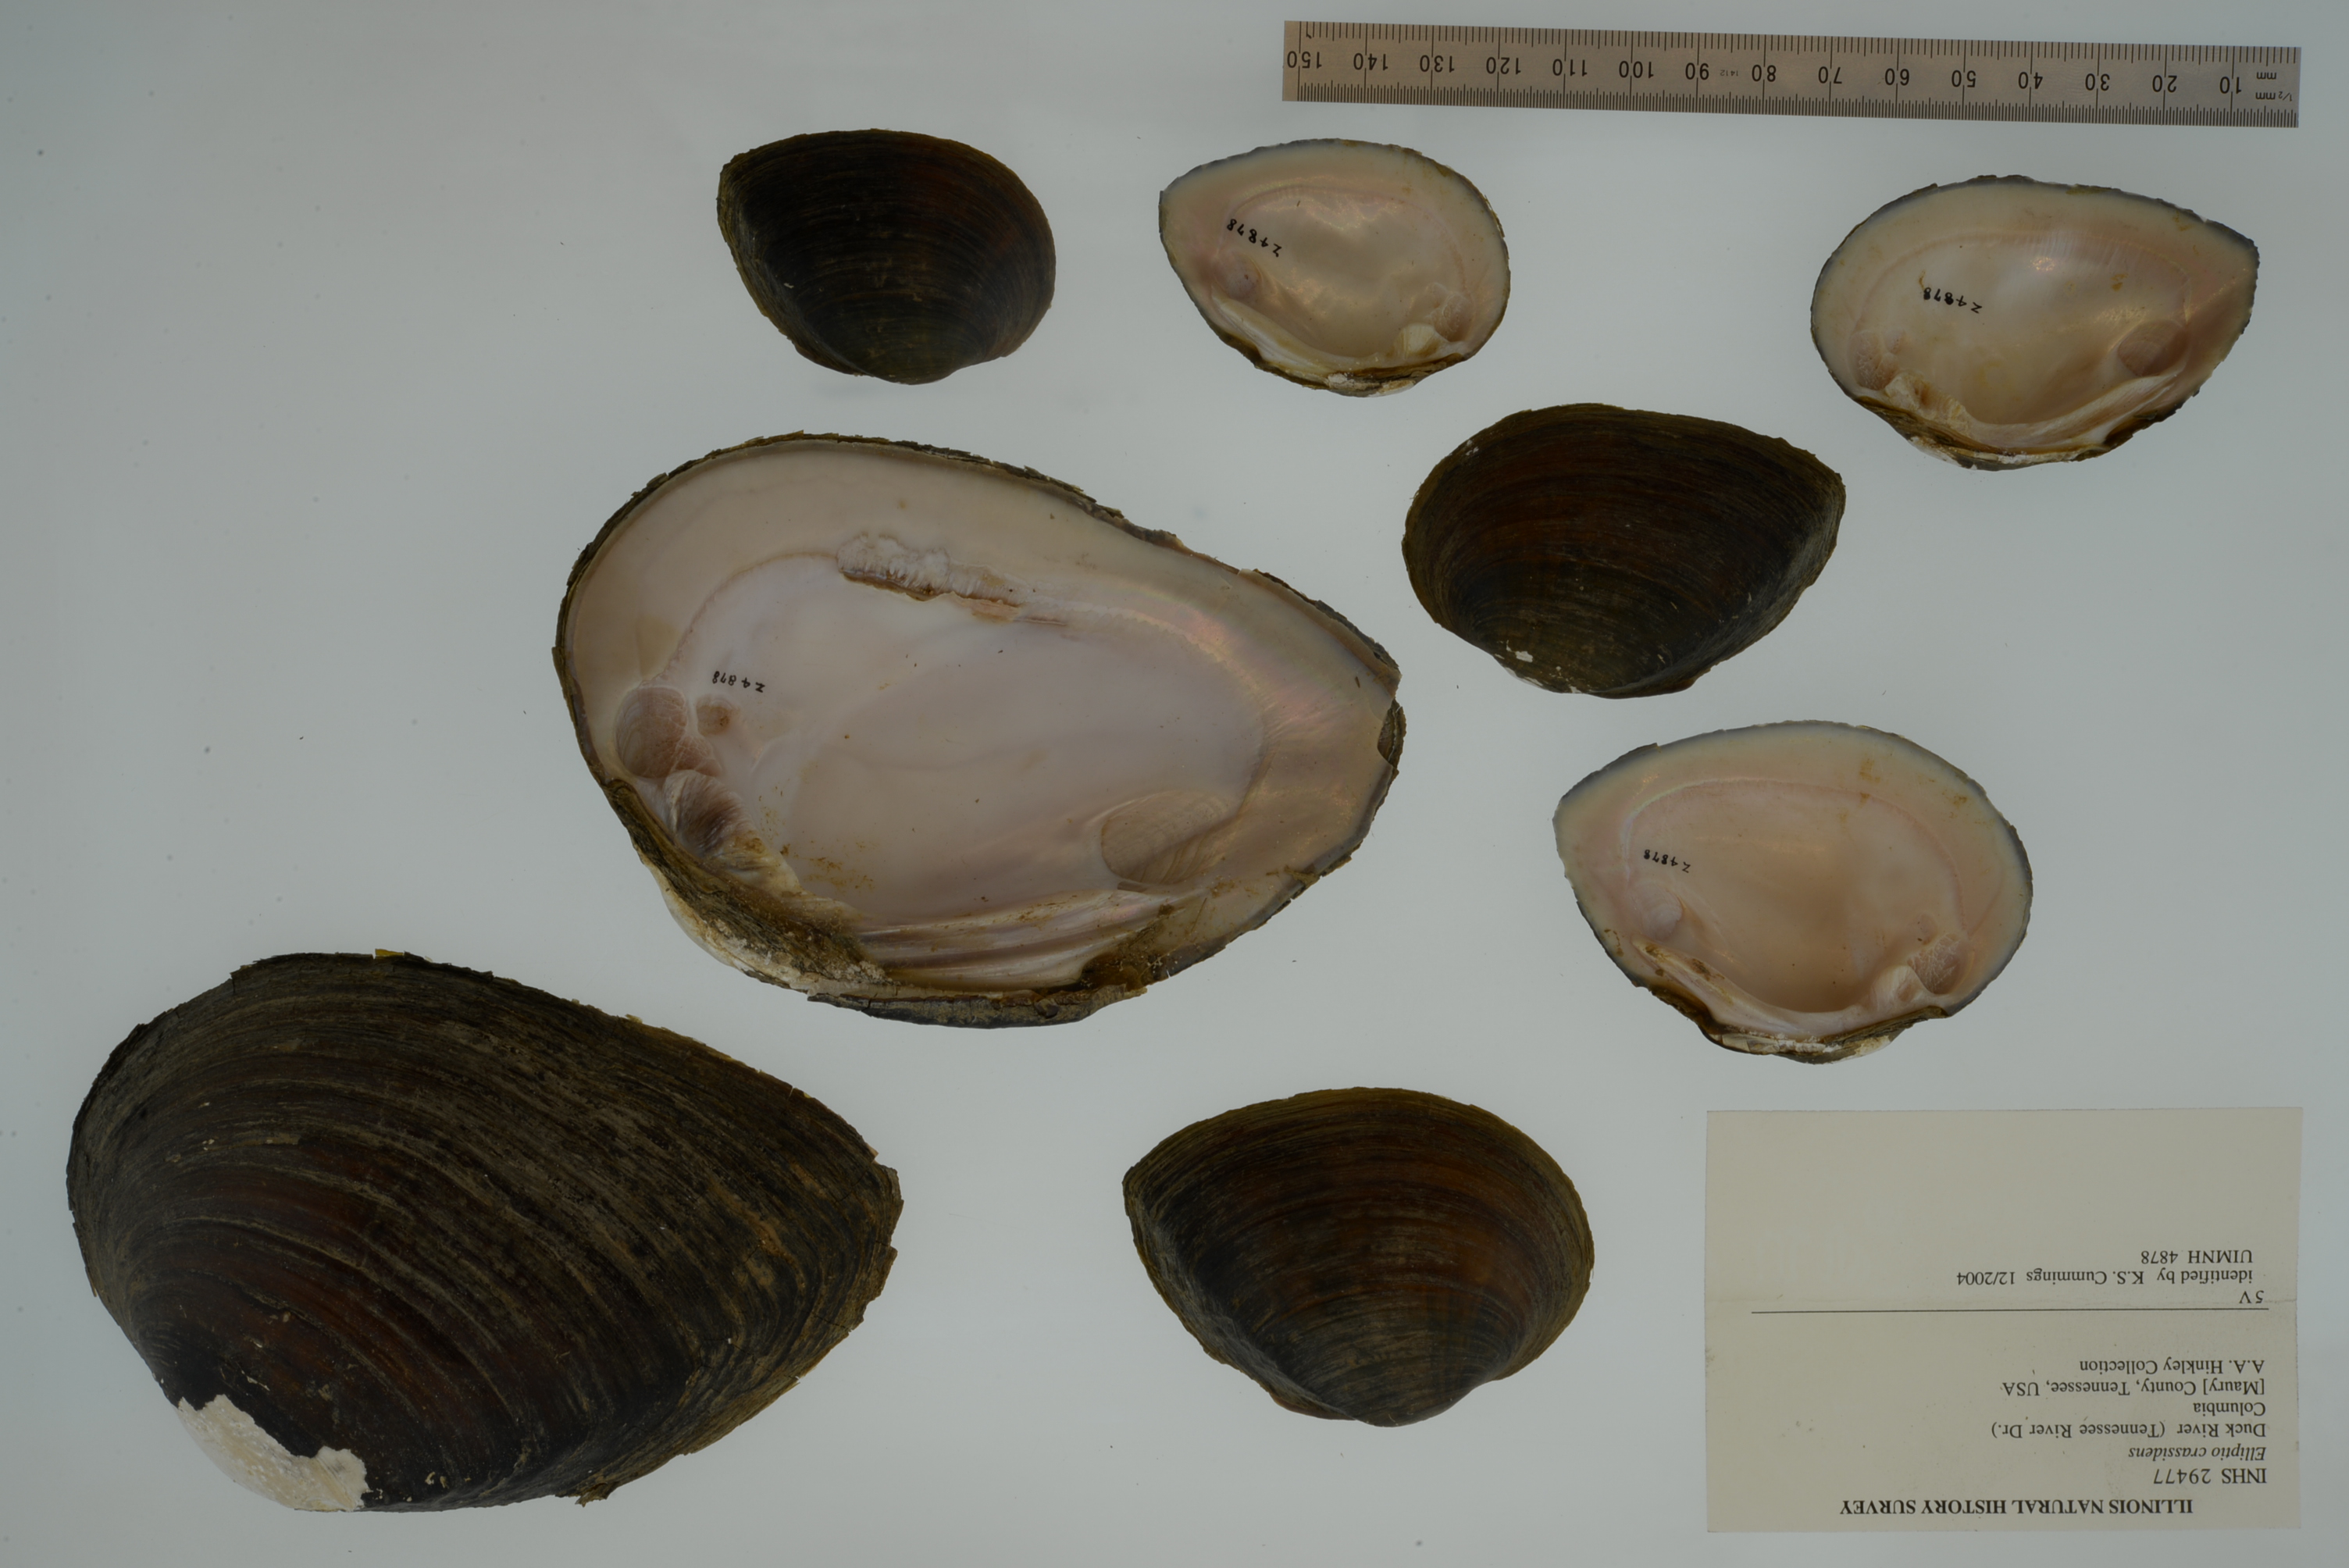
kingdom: Animalia
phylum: Mollusca
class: Bivalvia
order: Unionida
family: Unionidae
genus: Elliptio
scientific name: Elliptio crassidens
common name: Blue ham
